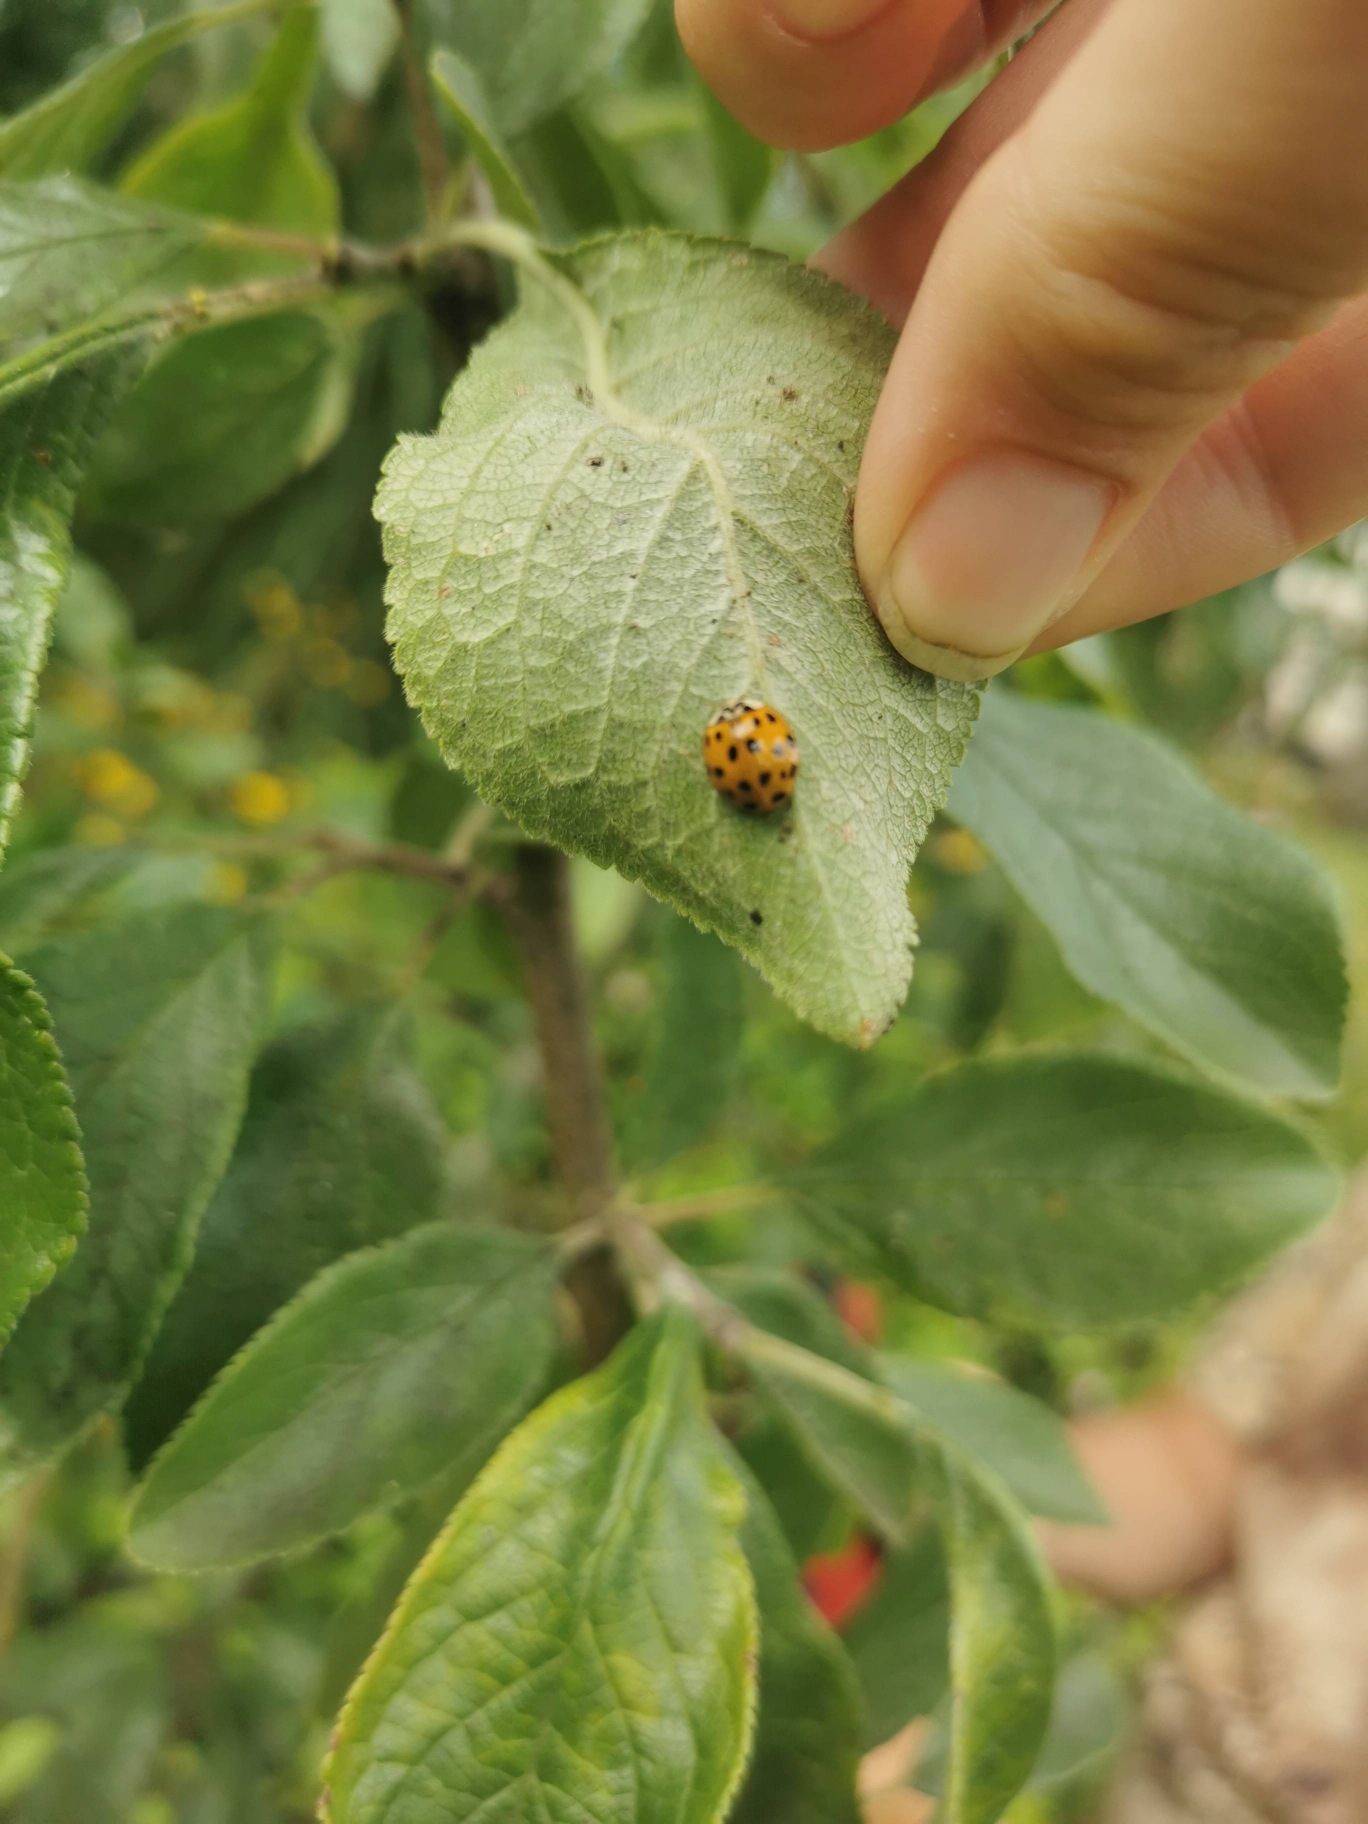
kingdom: Animalia
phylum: Arthropoda
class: Insecta
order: Coleoptera
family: Coccinellidae
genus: Harmonia
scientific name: Harmonia axyridis
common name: Harlekinmariehøne
